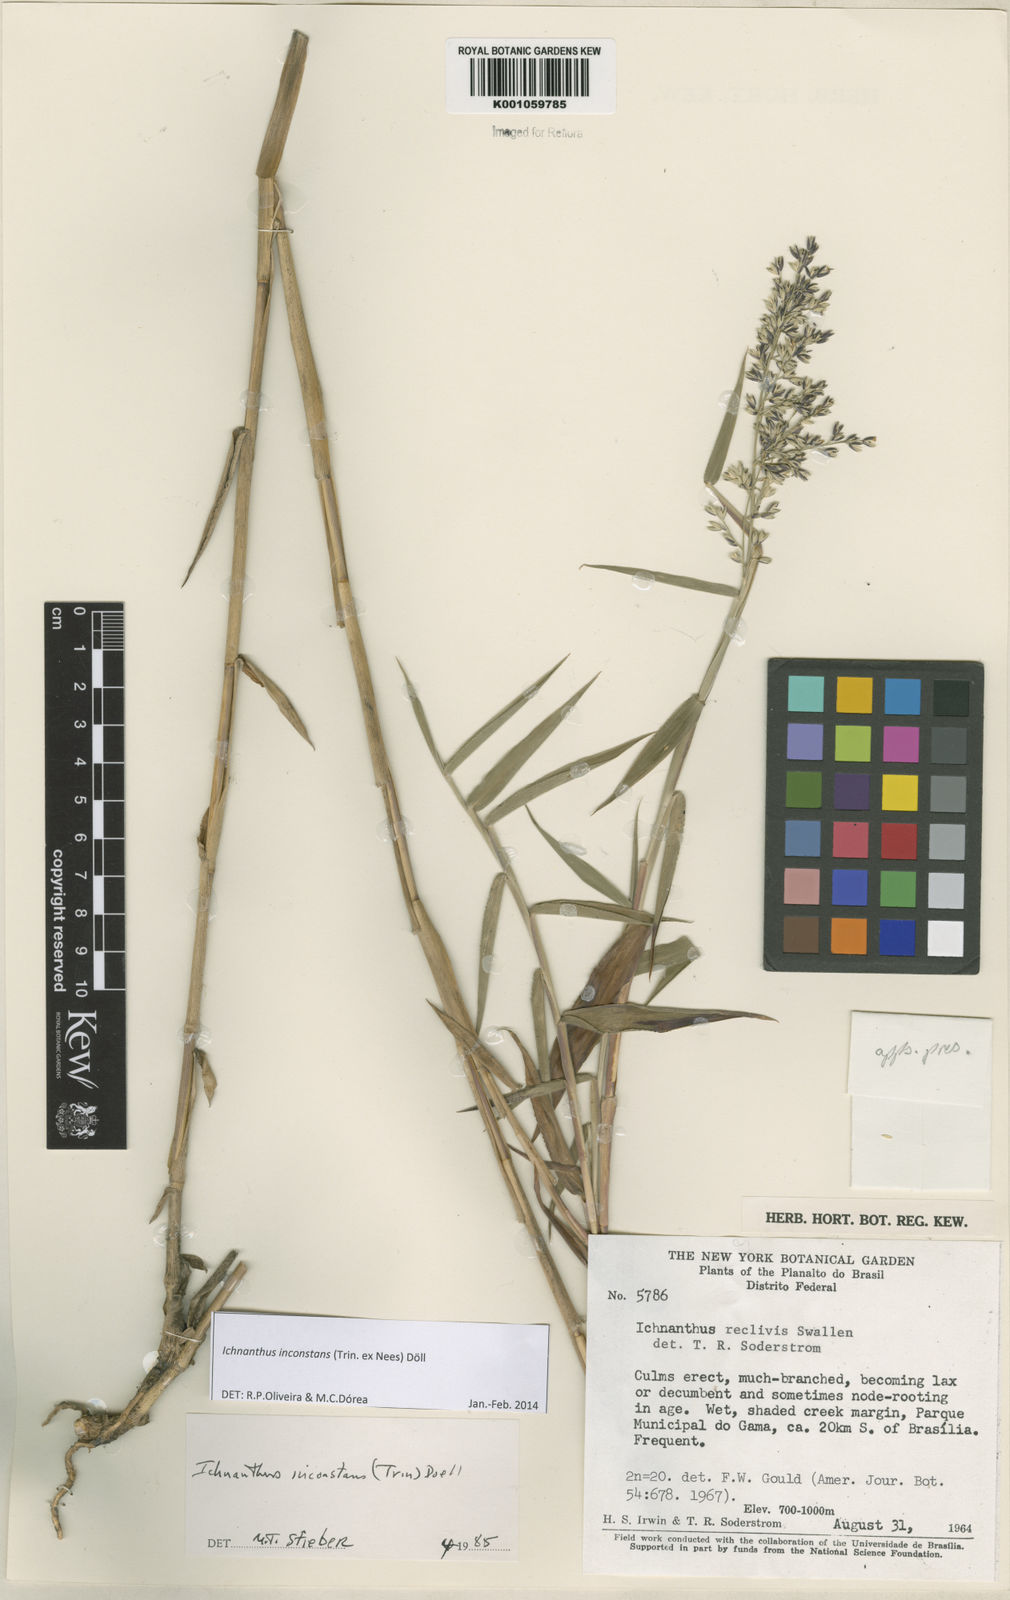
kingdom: Plantae
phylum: Tracheophyta
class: Liliopsida
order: Poales
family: Poaceae
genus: Ichnanthus
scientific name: Ichnanthus
